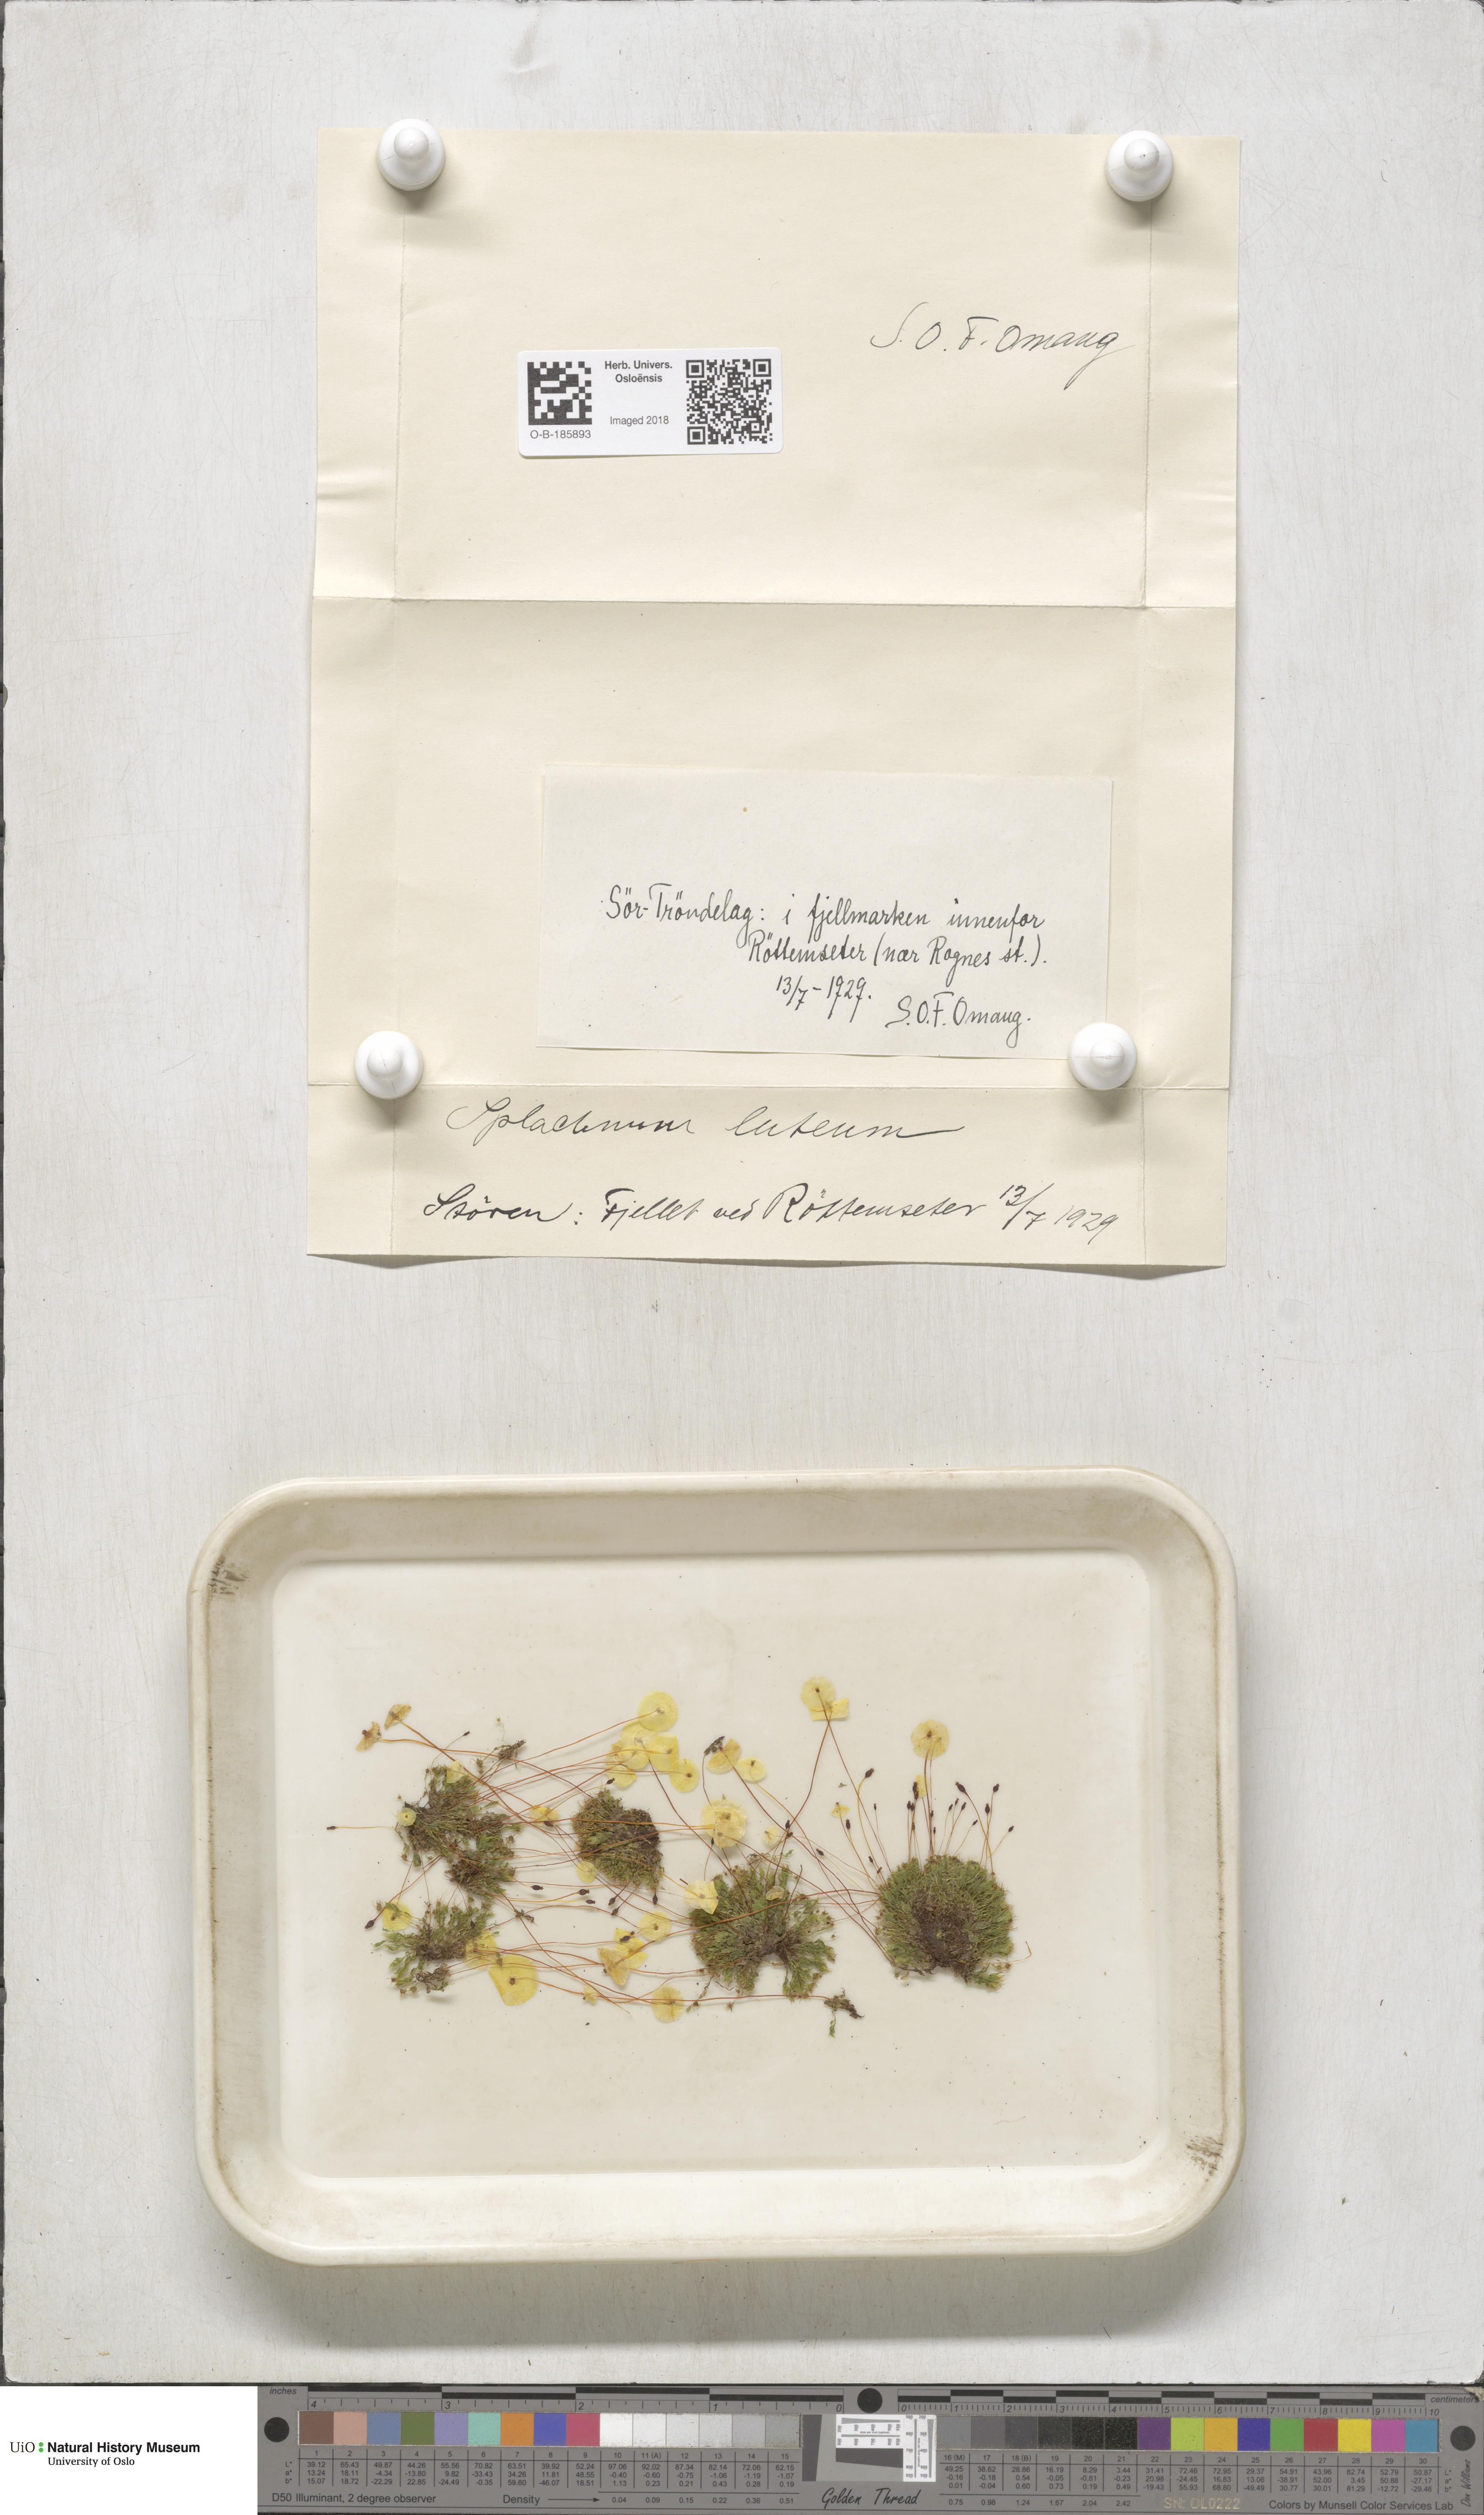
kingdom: Plantae
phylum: Bryophyta
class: Bryopsida
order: Splachnales
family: Splachnaceae
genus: Splachnum
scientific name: Splachnum luteum
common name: Yellow dung moss
